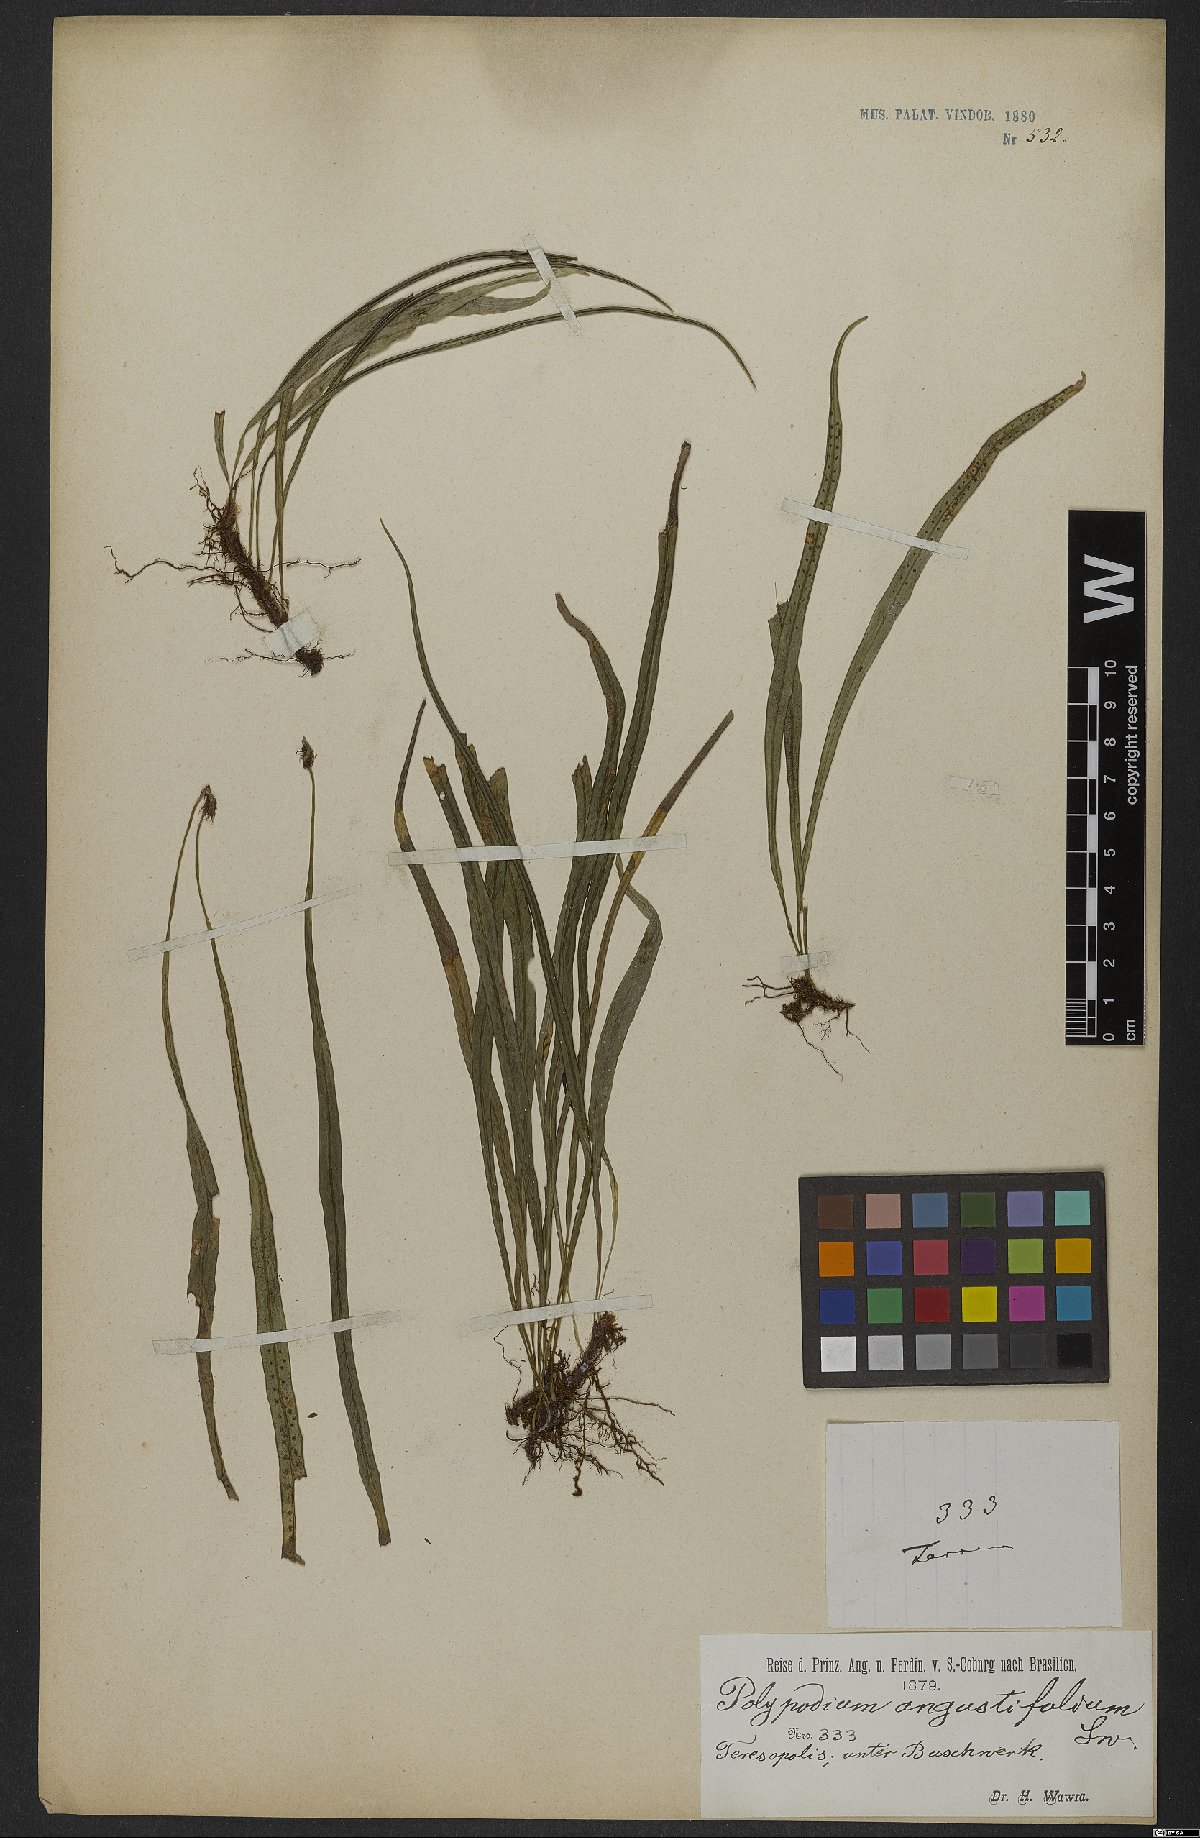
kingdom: Plantae
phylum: Tracheophyta
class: Polypodiopsida
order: Polypodiales
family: Polypodiaceae
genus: Campyloneurum
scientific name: Campyloneurum angustifolium
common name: Narrow-leaf strap fern
